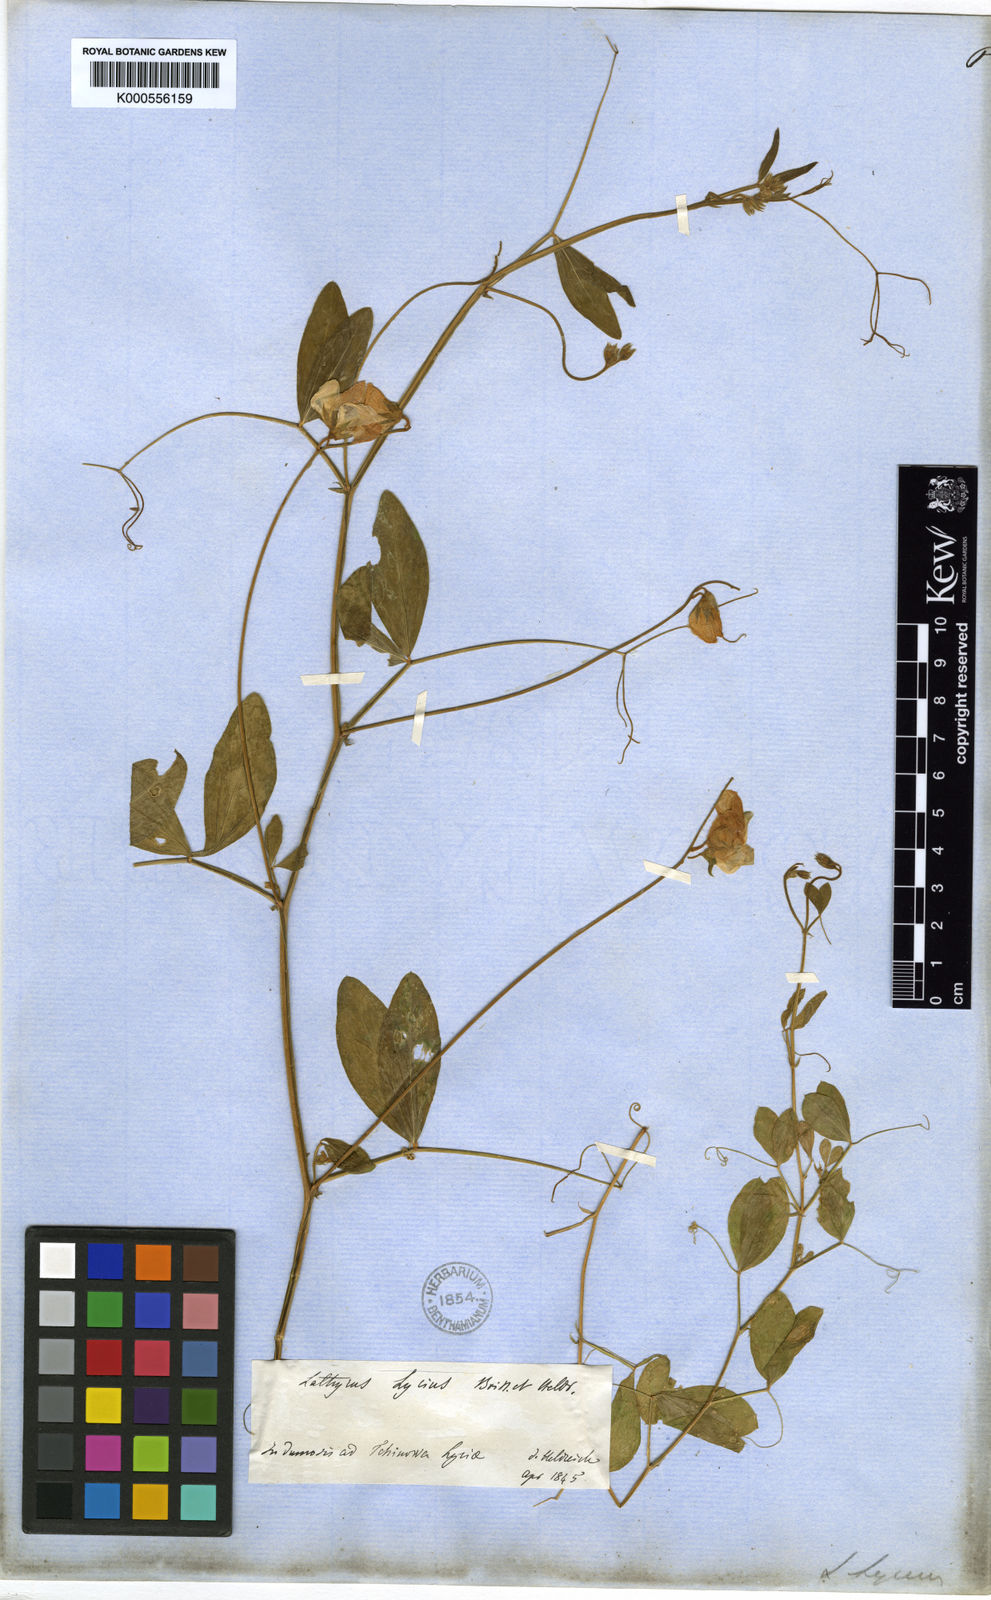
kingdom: Plantae
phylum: Tracheophyta
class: Magnoliopsida
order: Fabales
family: Fabaceae
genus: Lathyrus
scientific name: Lathyrus
